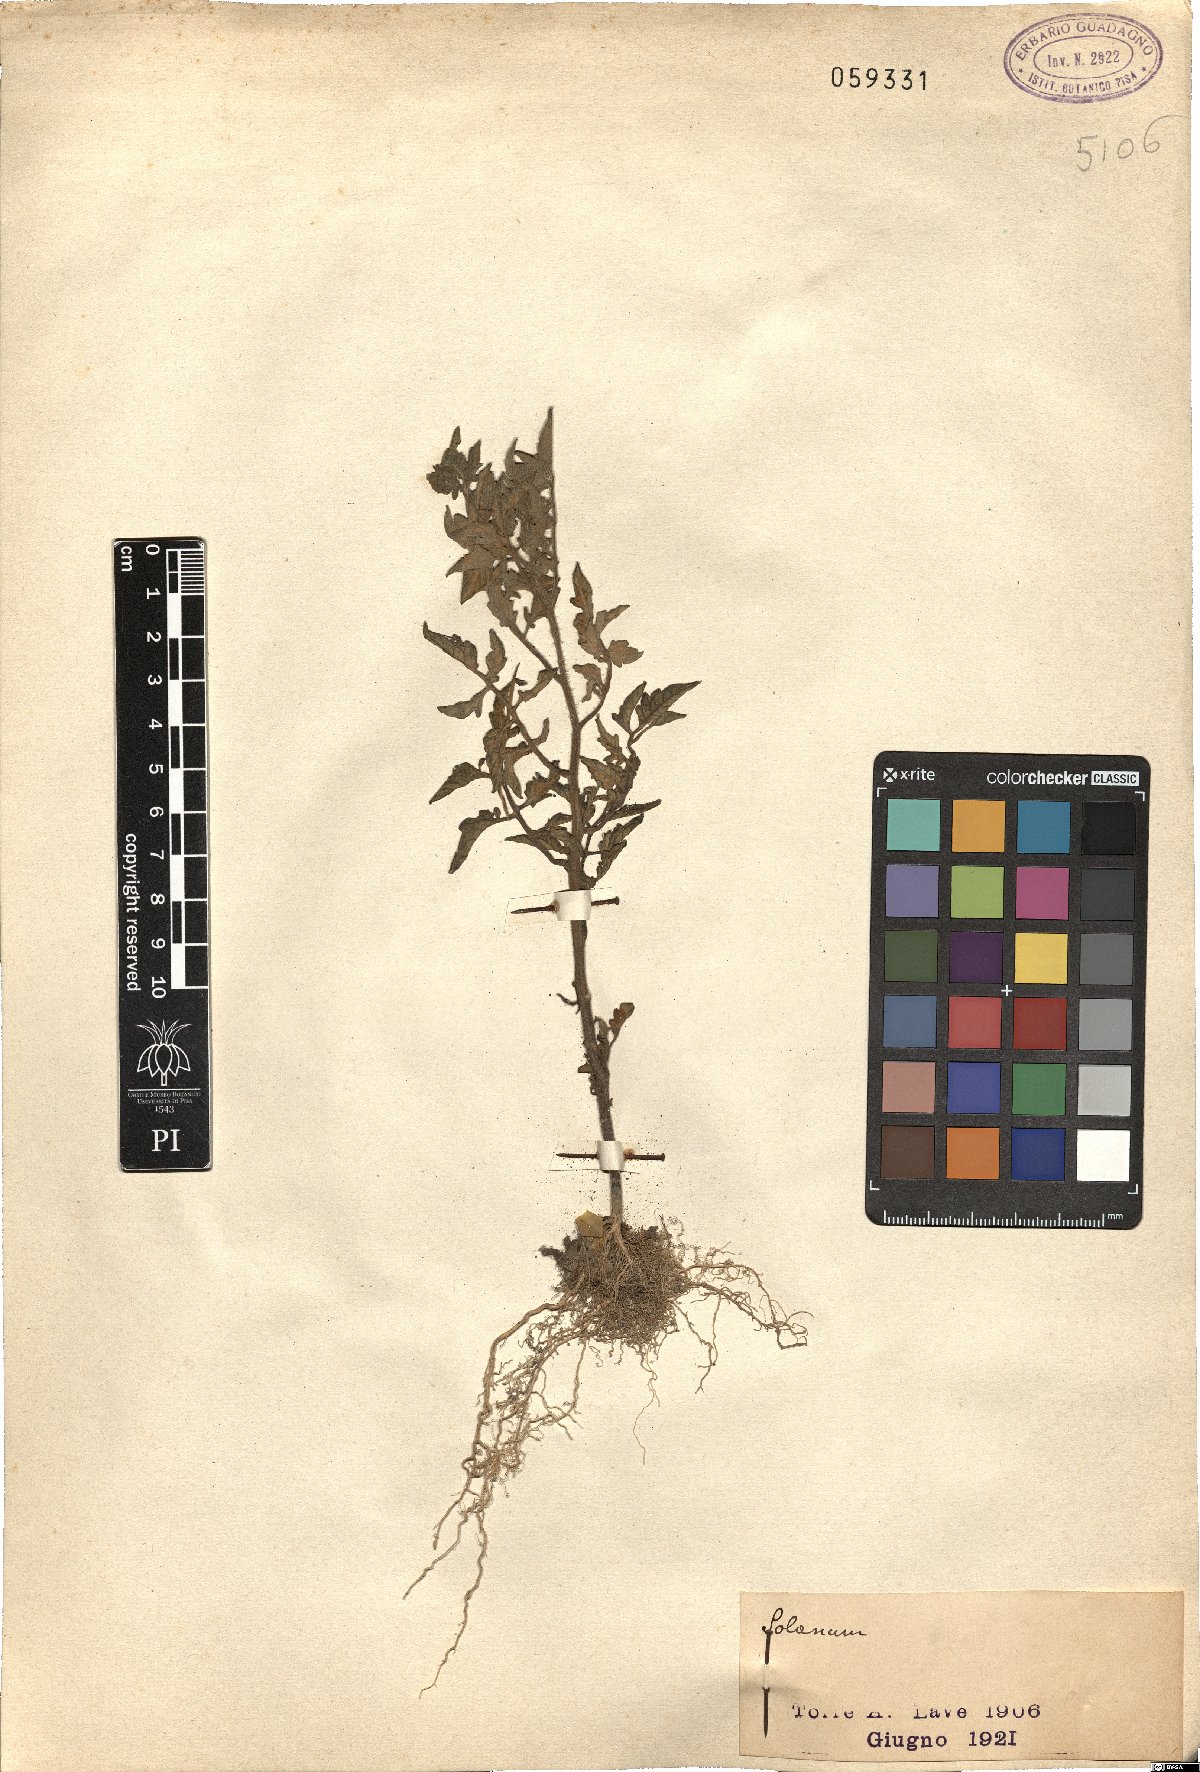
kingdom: Plantae
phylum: Tracheophyta
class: Magnoliopsida
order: Solanales
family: Solanaceae
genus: Solanum
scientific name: Solanum
